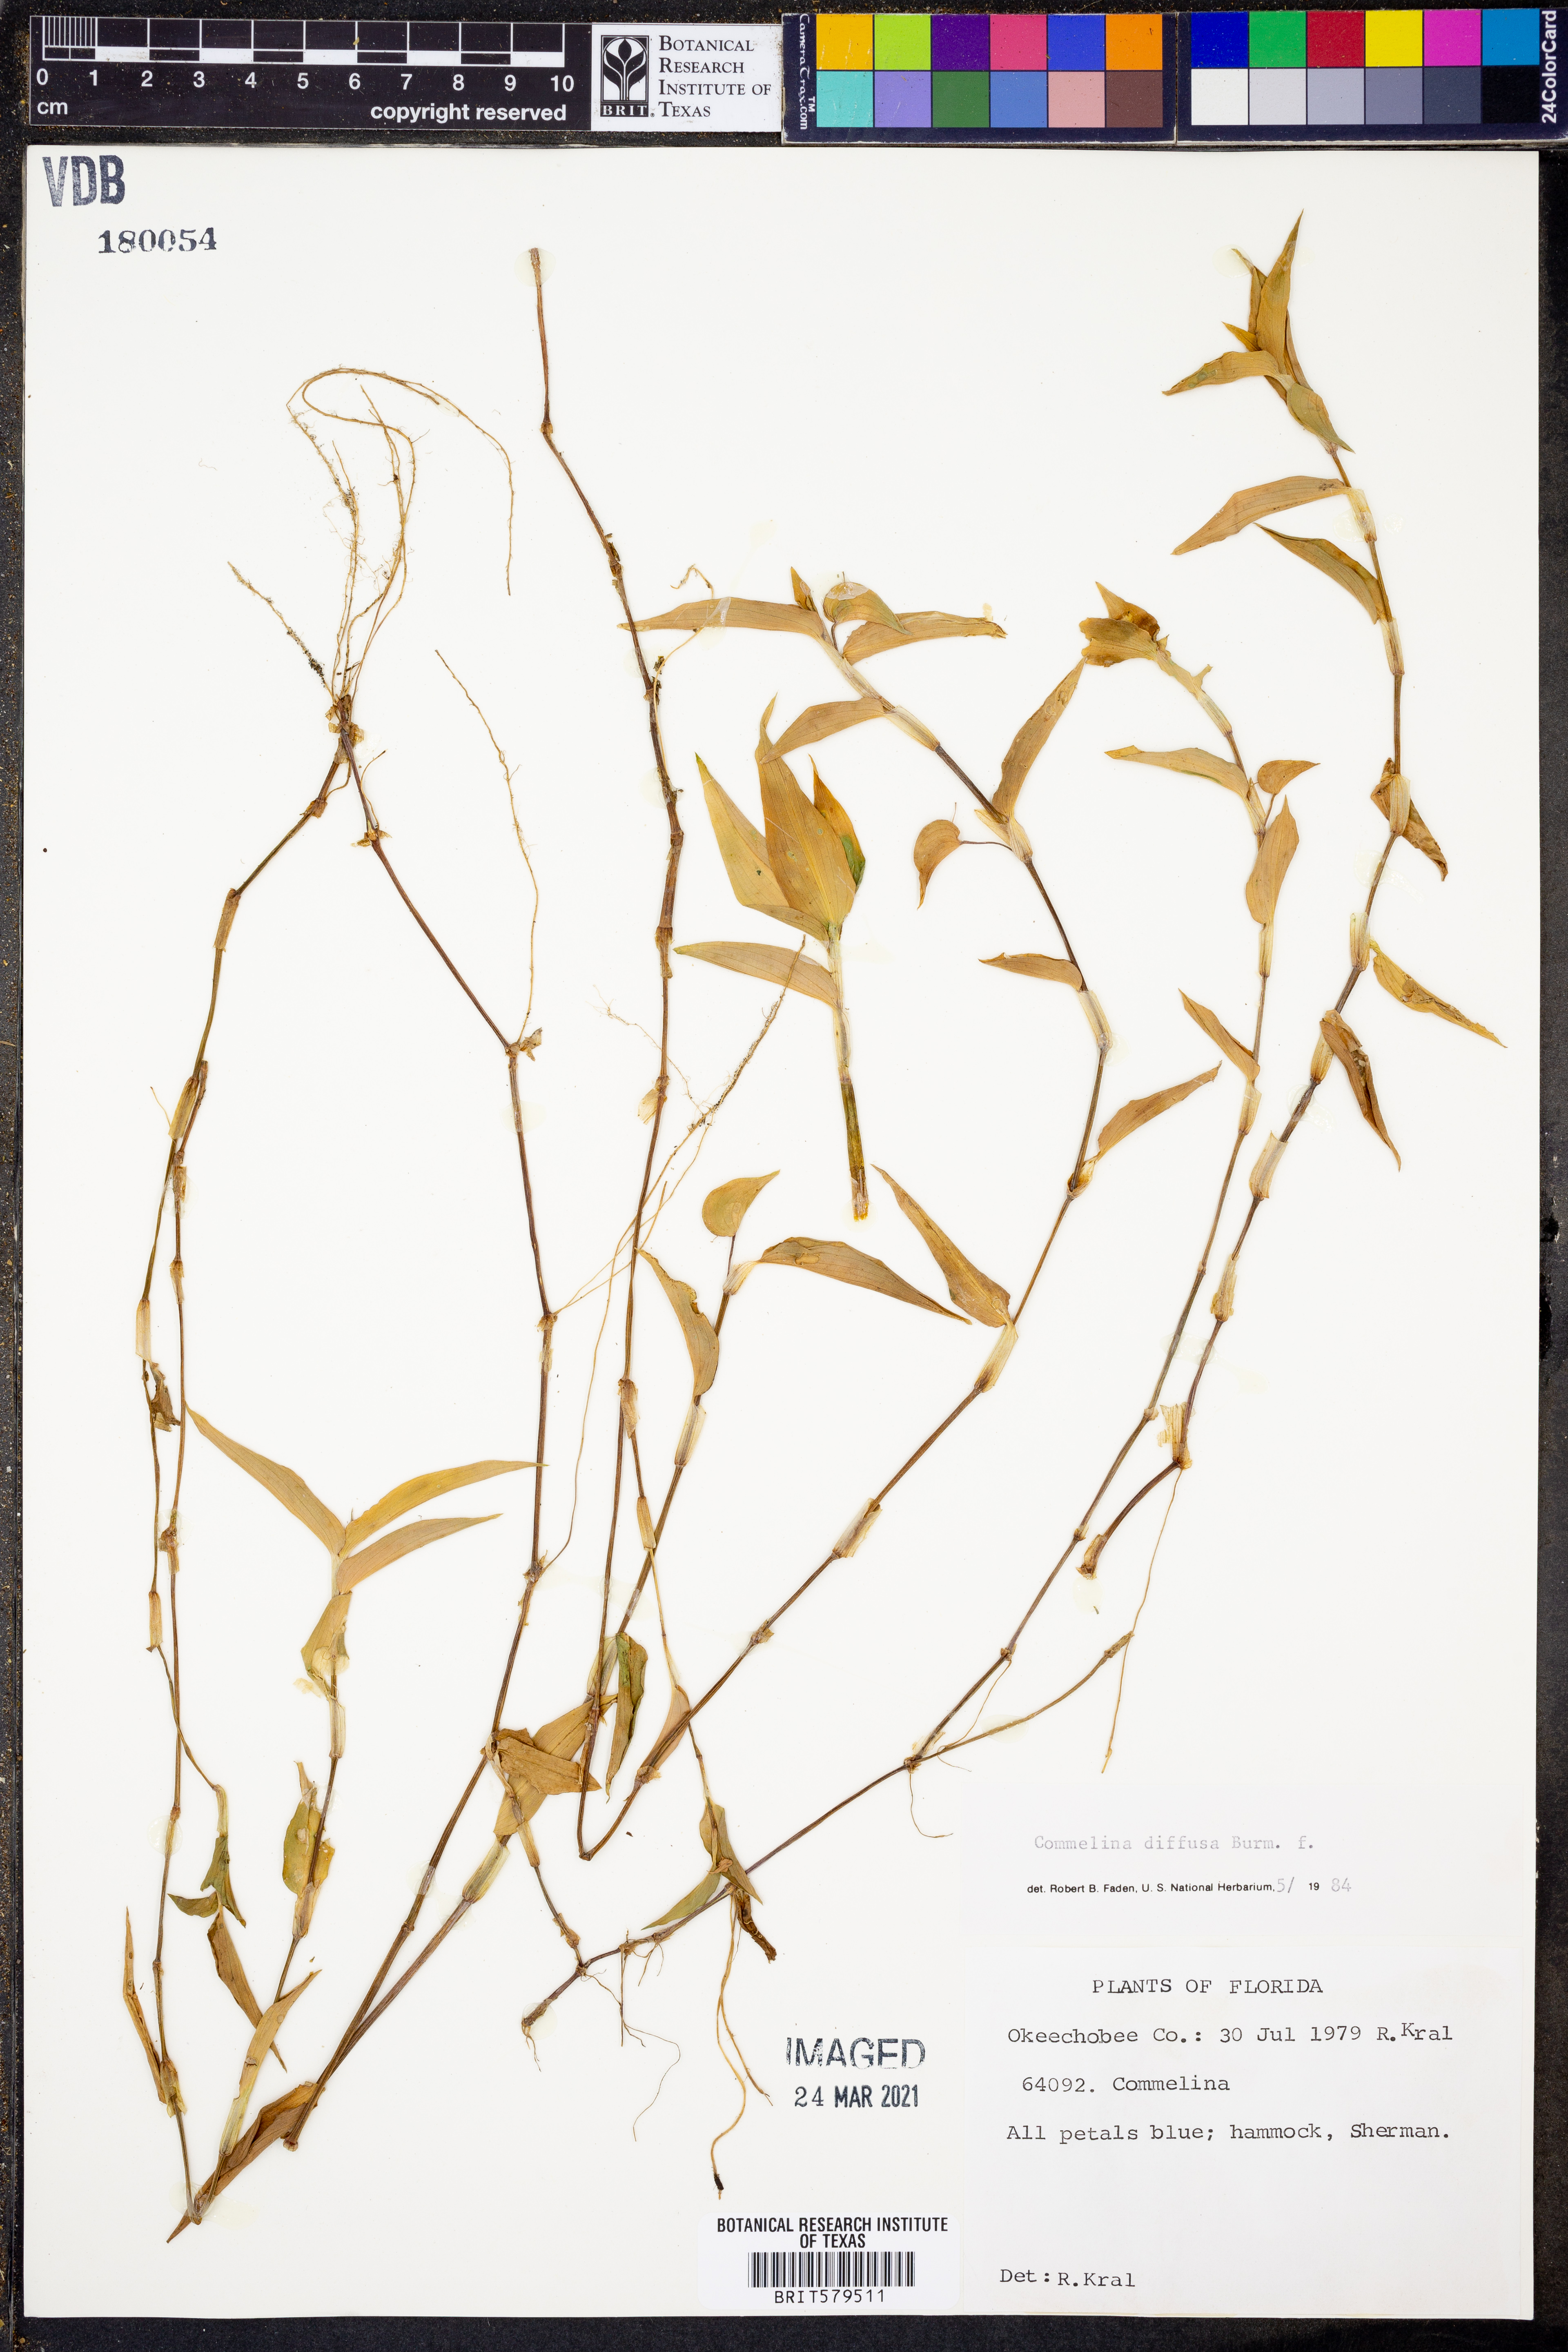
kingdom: Plantae
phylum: Tracheophyta
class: Liliopsida
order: Commelinales
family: Commelinaceae
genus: Commelina
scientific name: Commelina diffusa
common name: Climbing dayflower
